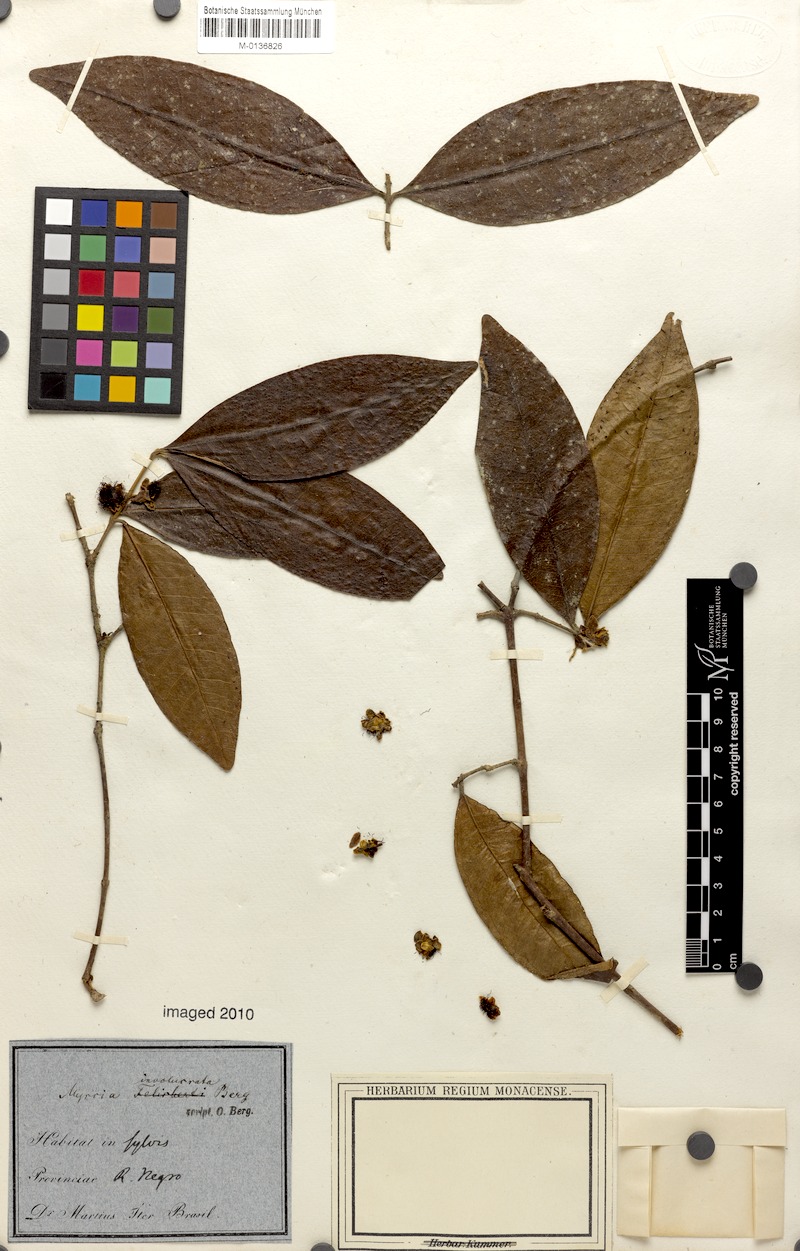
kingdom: Plantae
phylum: Tracheophyta
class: Magnoliopsida
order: Myrtales
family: Myrtaceae
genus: Myrcia
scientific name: Myrcia felisbertii
